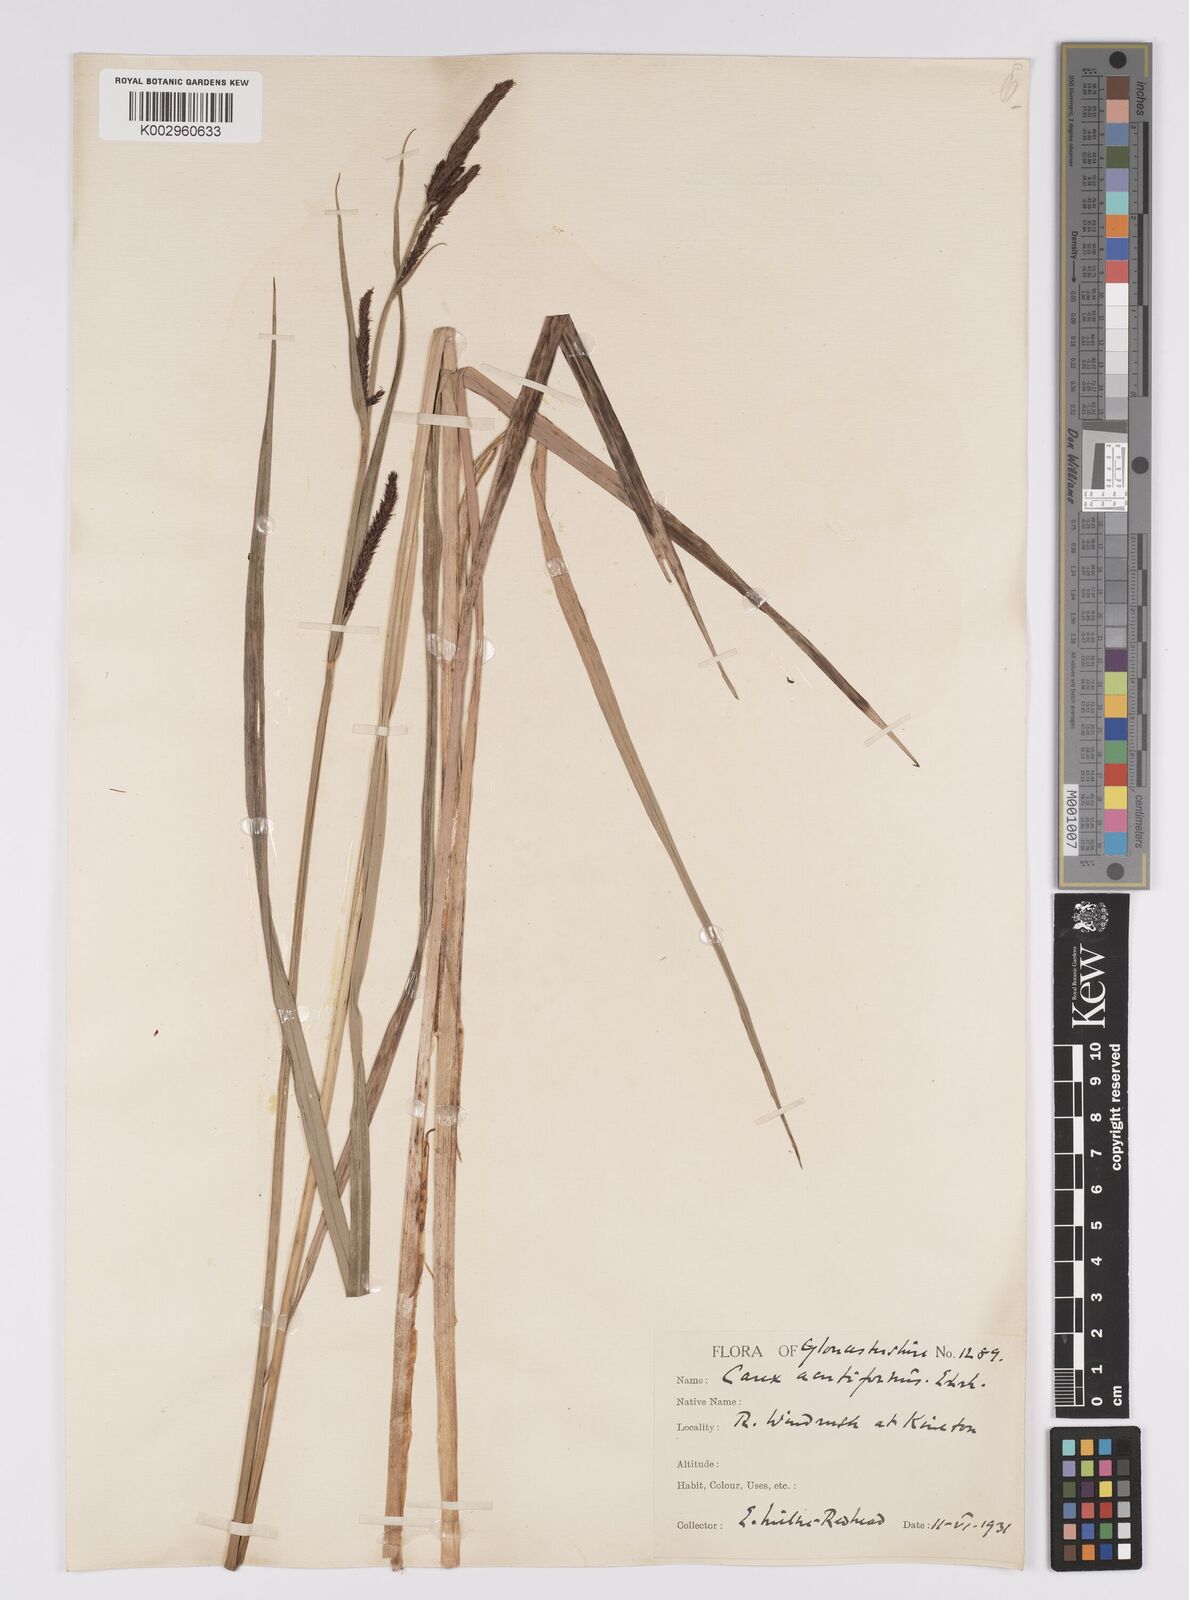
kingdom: Plantae
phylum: Tracheophyta
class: Liliopsida
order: Poales
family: Cyperaceae
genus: Carex
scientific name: Carex acutiformis
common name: Lesser pond-sedge
